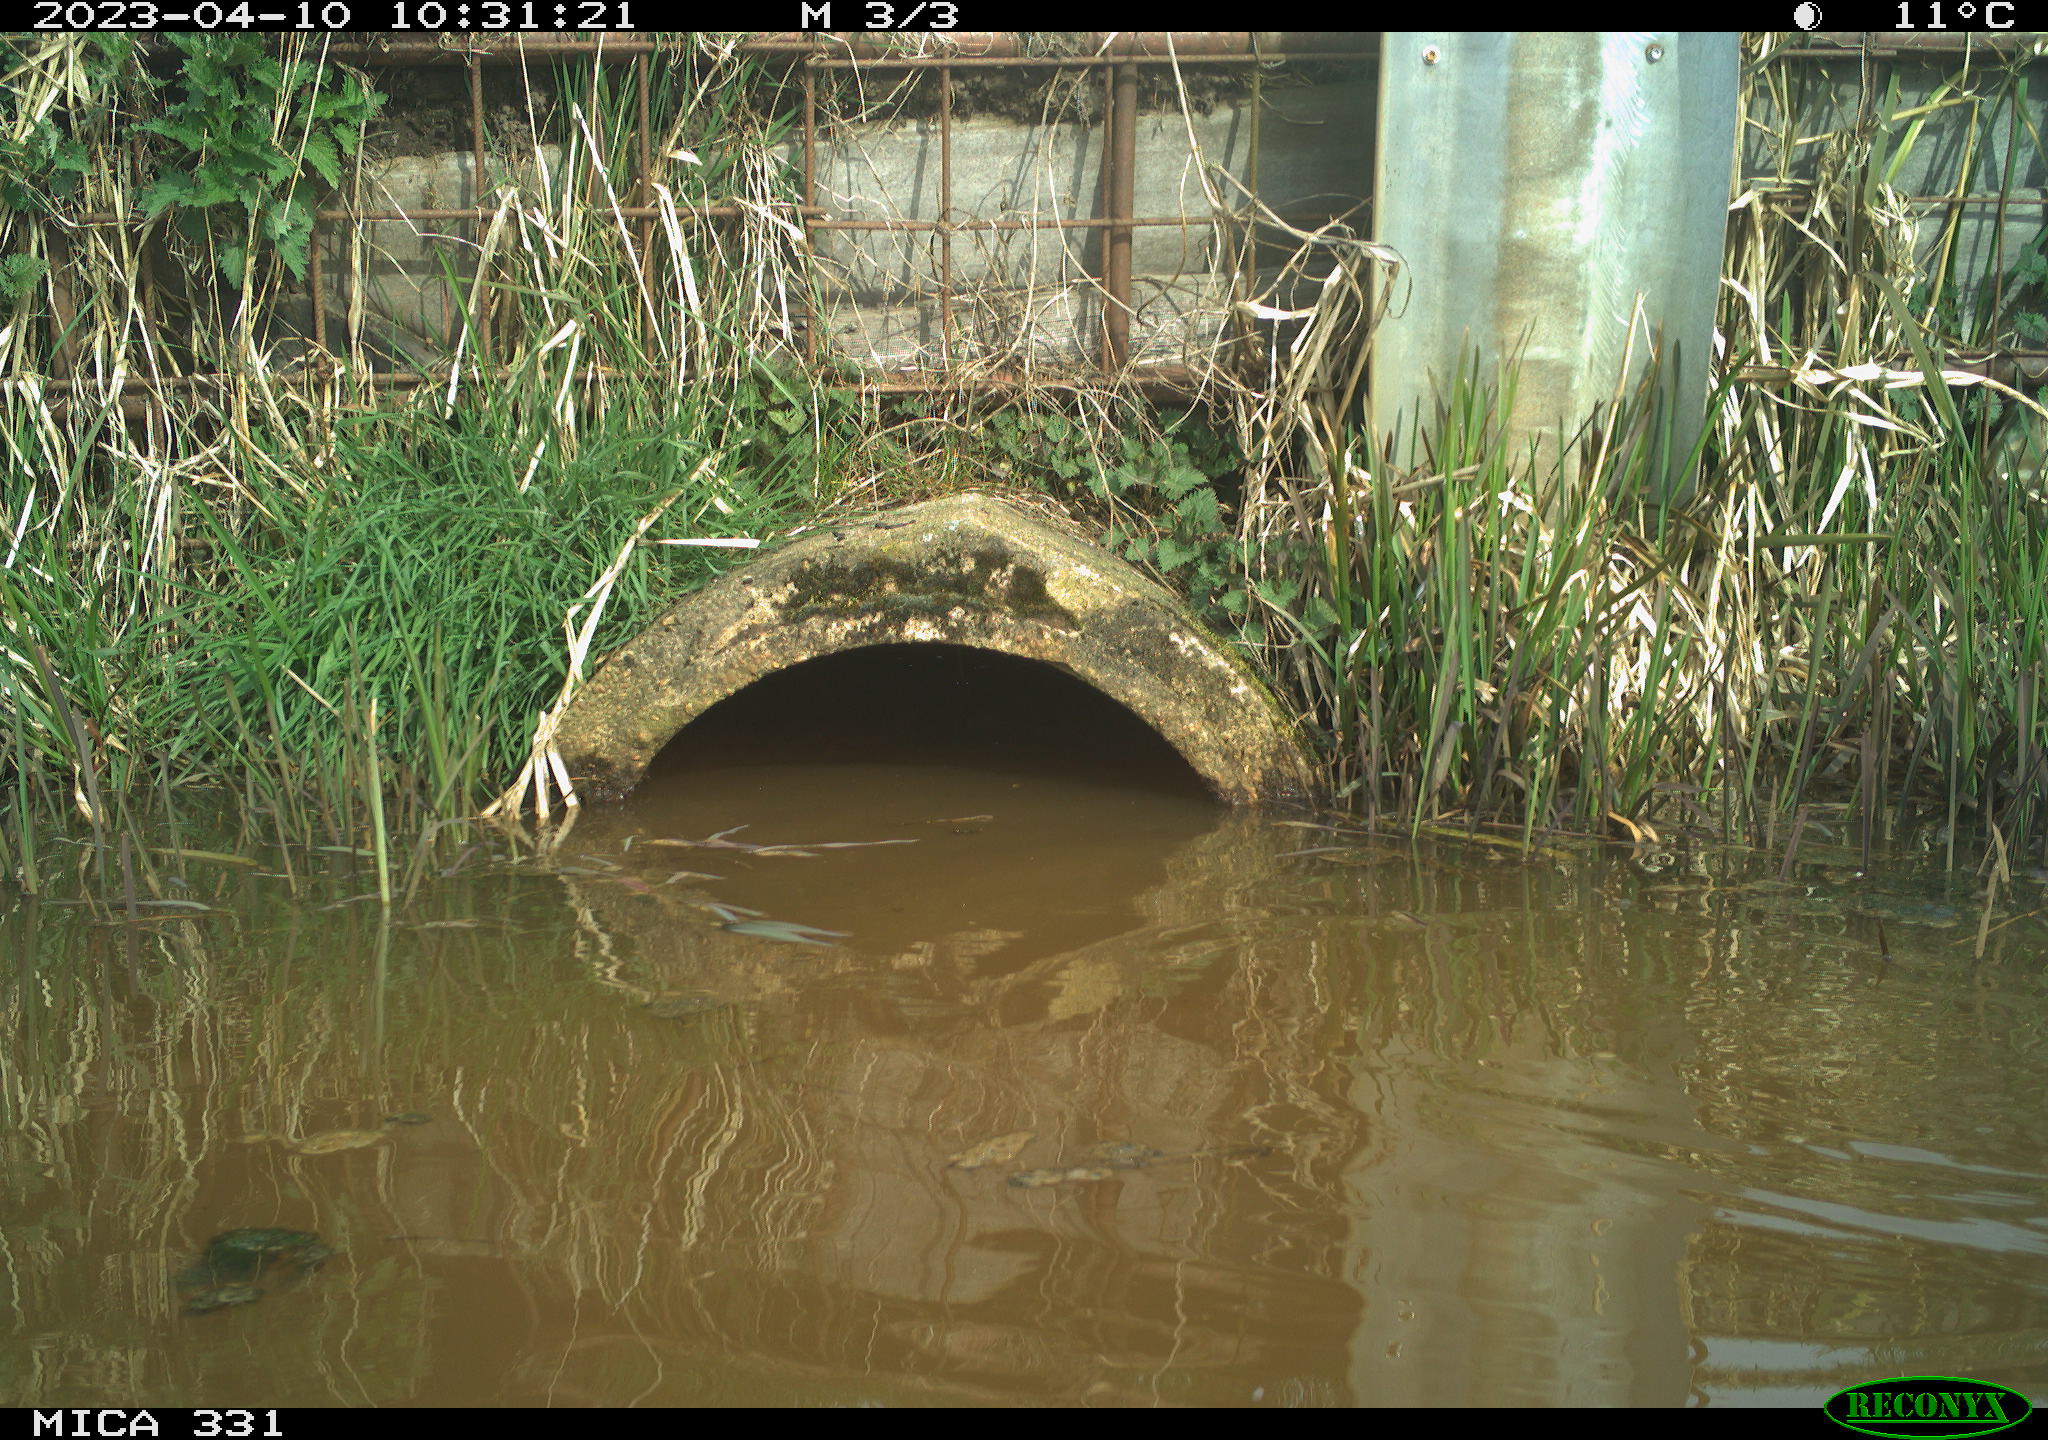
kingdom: Animalia
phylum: Chordata
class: Aves
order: Gruiformes
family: Rallidae
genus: Fulica
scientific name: Fulica atra
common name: Eurasian coot
